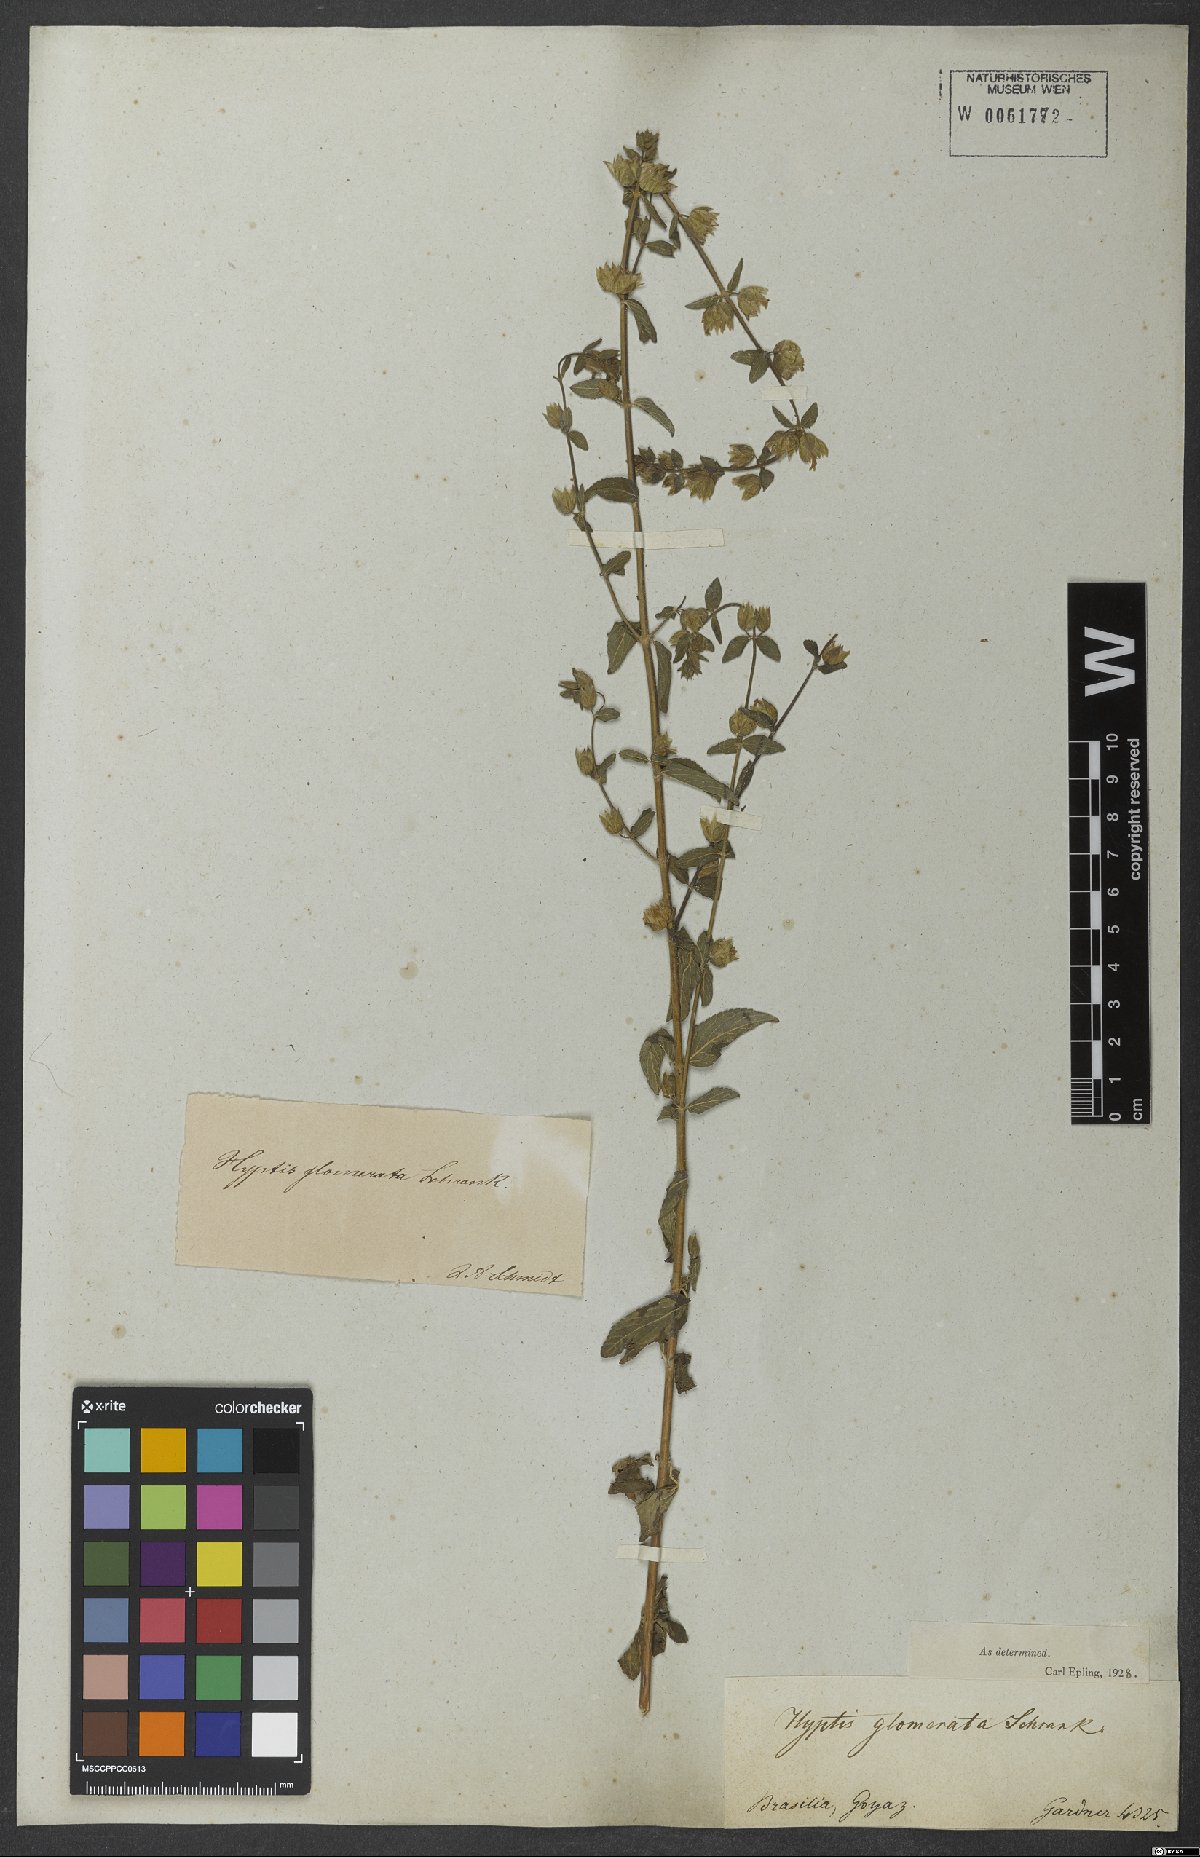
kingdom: Plantae
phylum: Tracheophyta
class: Magnoliopsida
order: Lamiales
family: Lamiaceae
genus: Oocephalus
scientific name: Oocephalus oppositiflorus
